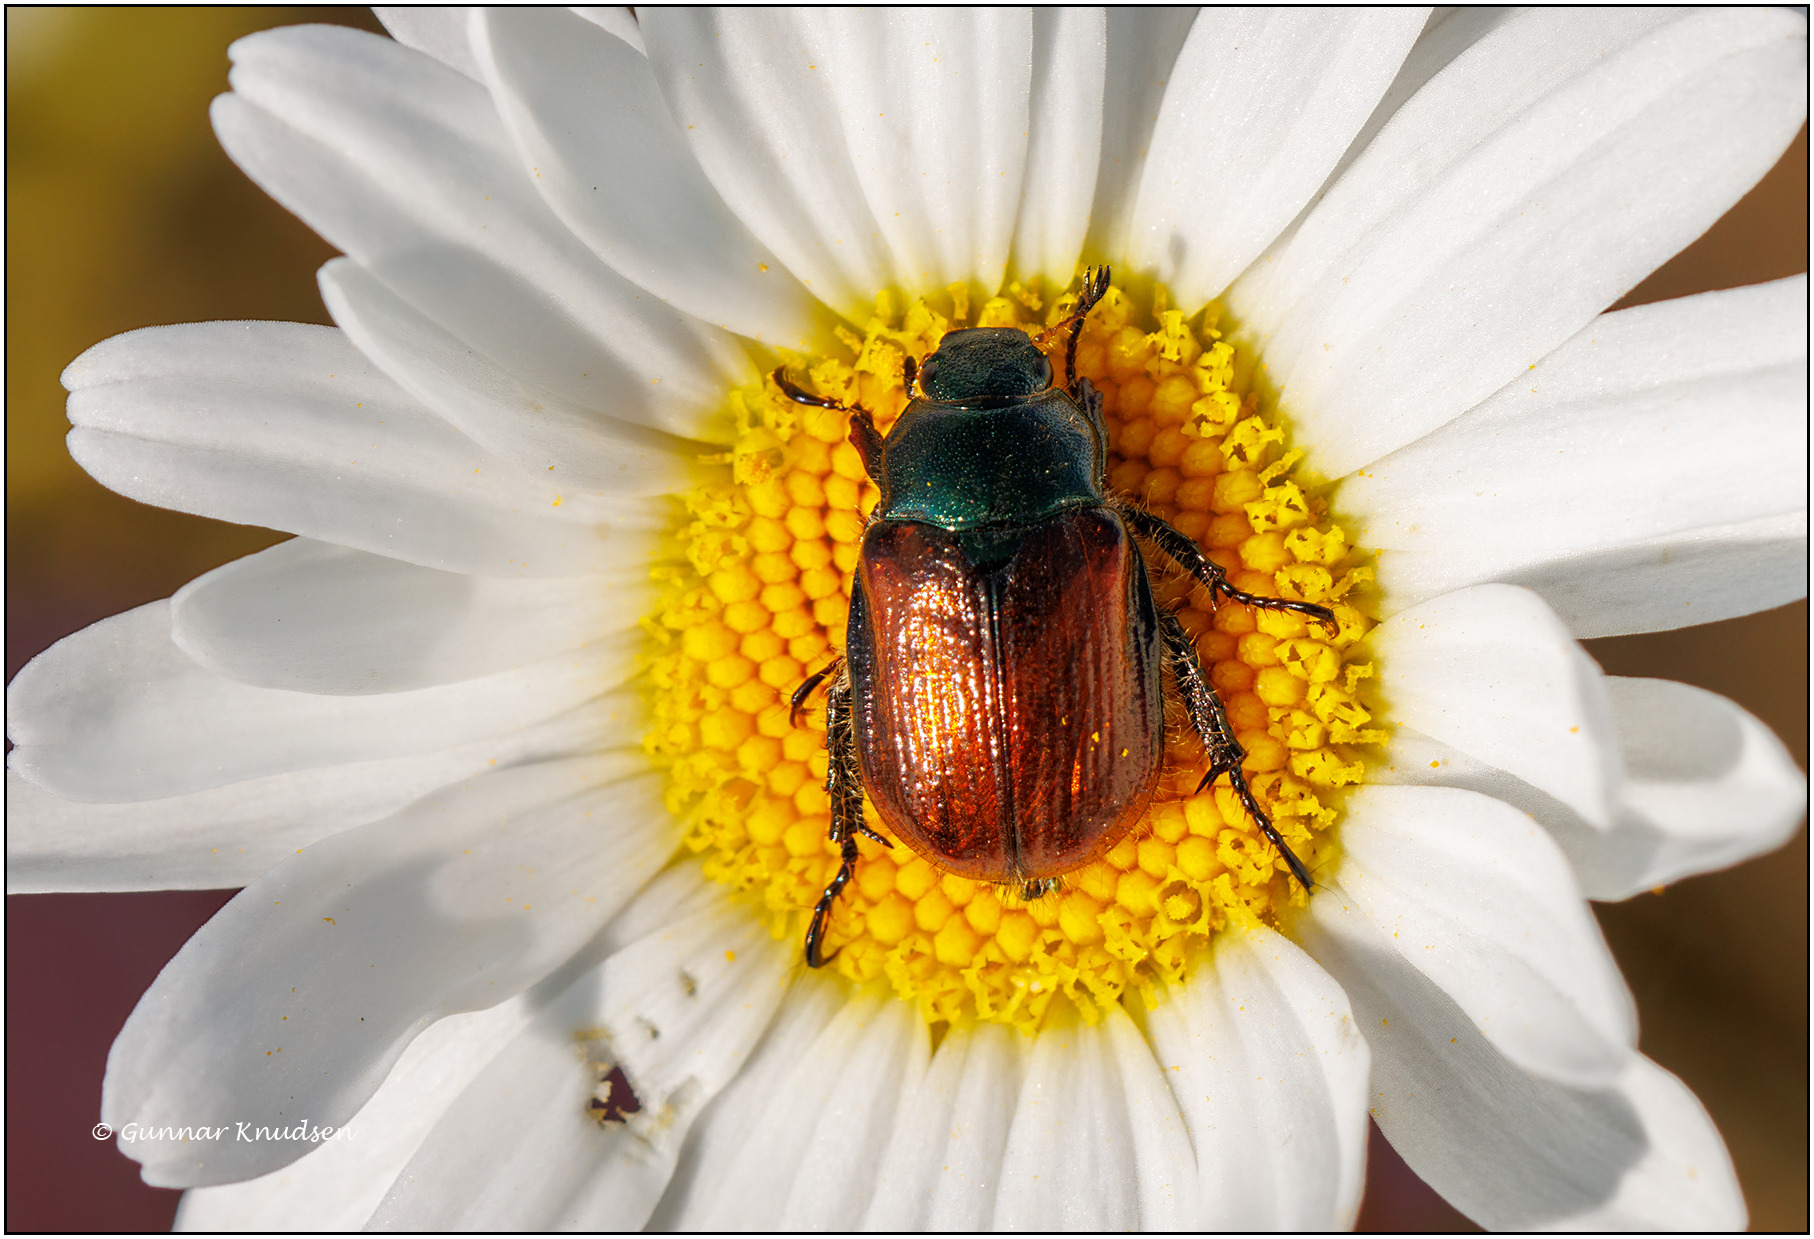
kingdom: Animalia
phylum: Arthropoda
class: Insecta
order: Coleoptera
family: Scarabaeidae
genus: Phyllopertha
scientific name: Phyllopertha horticola
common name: Gåsebille
